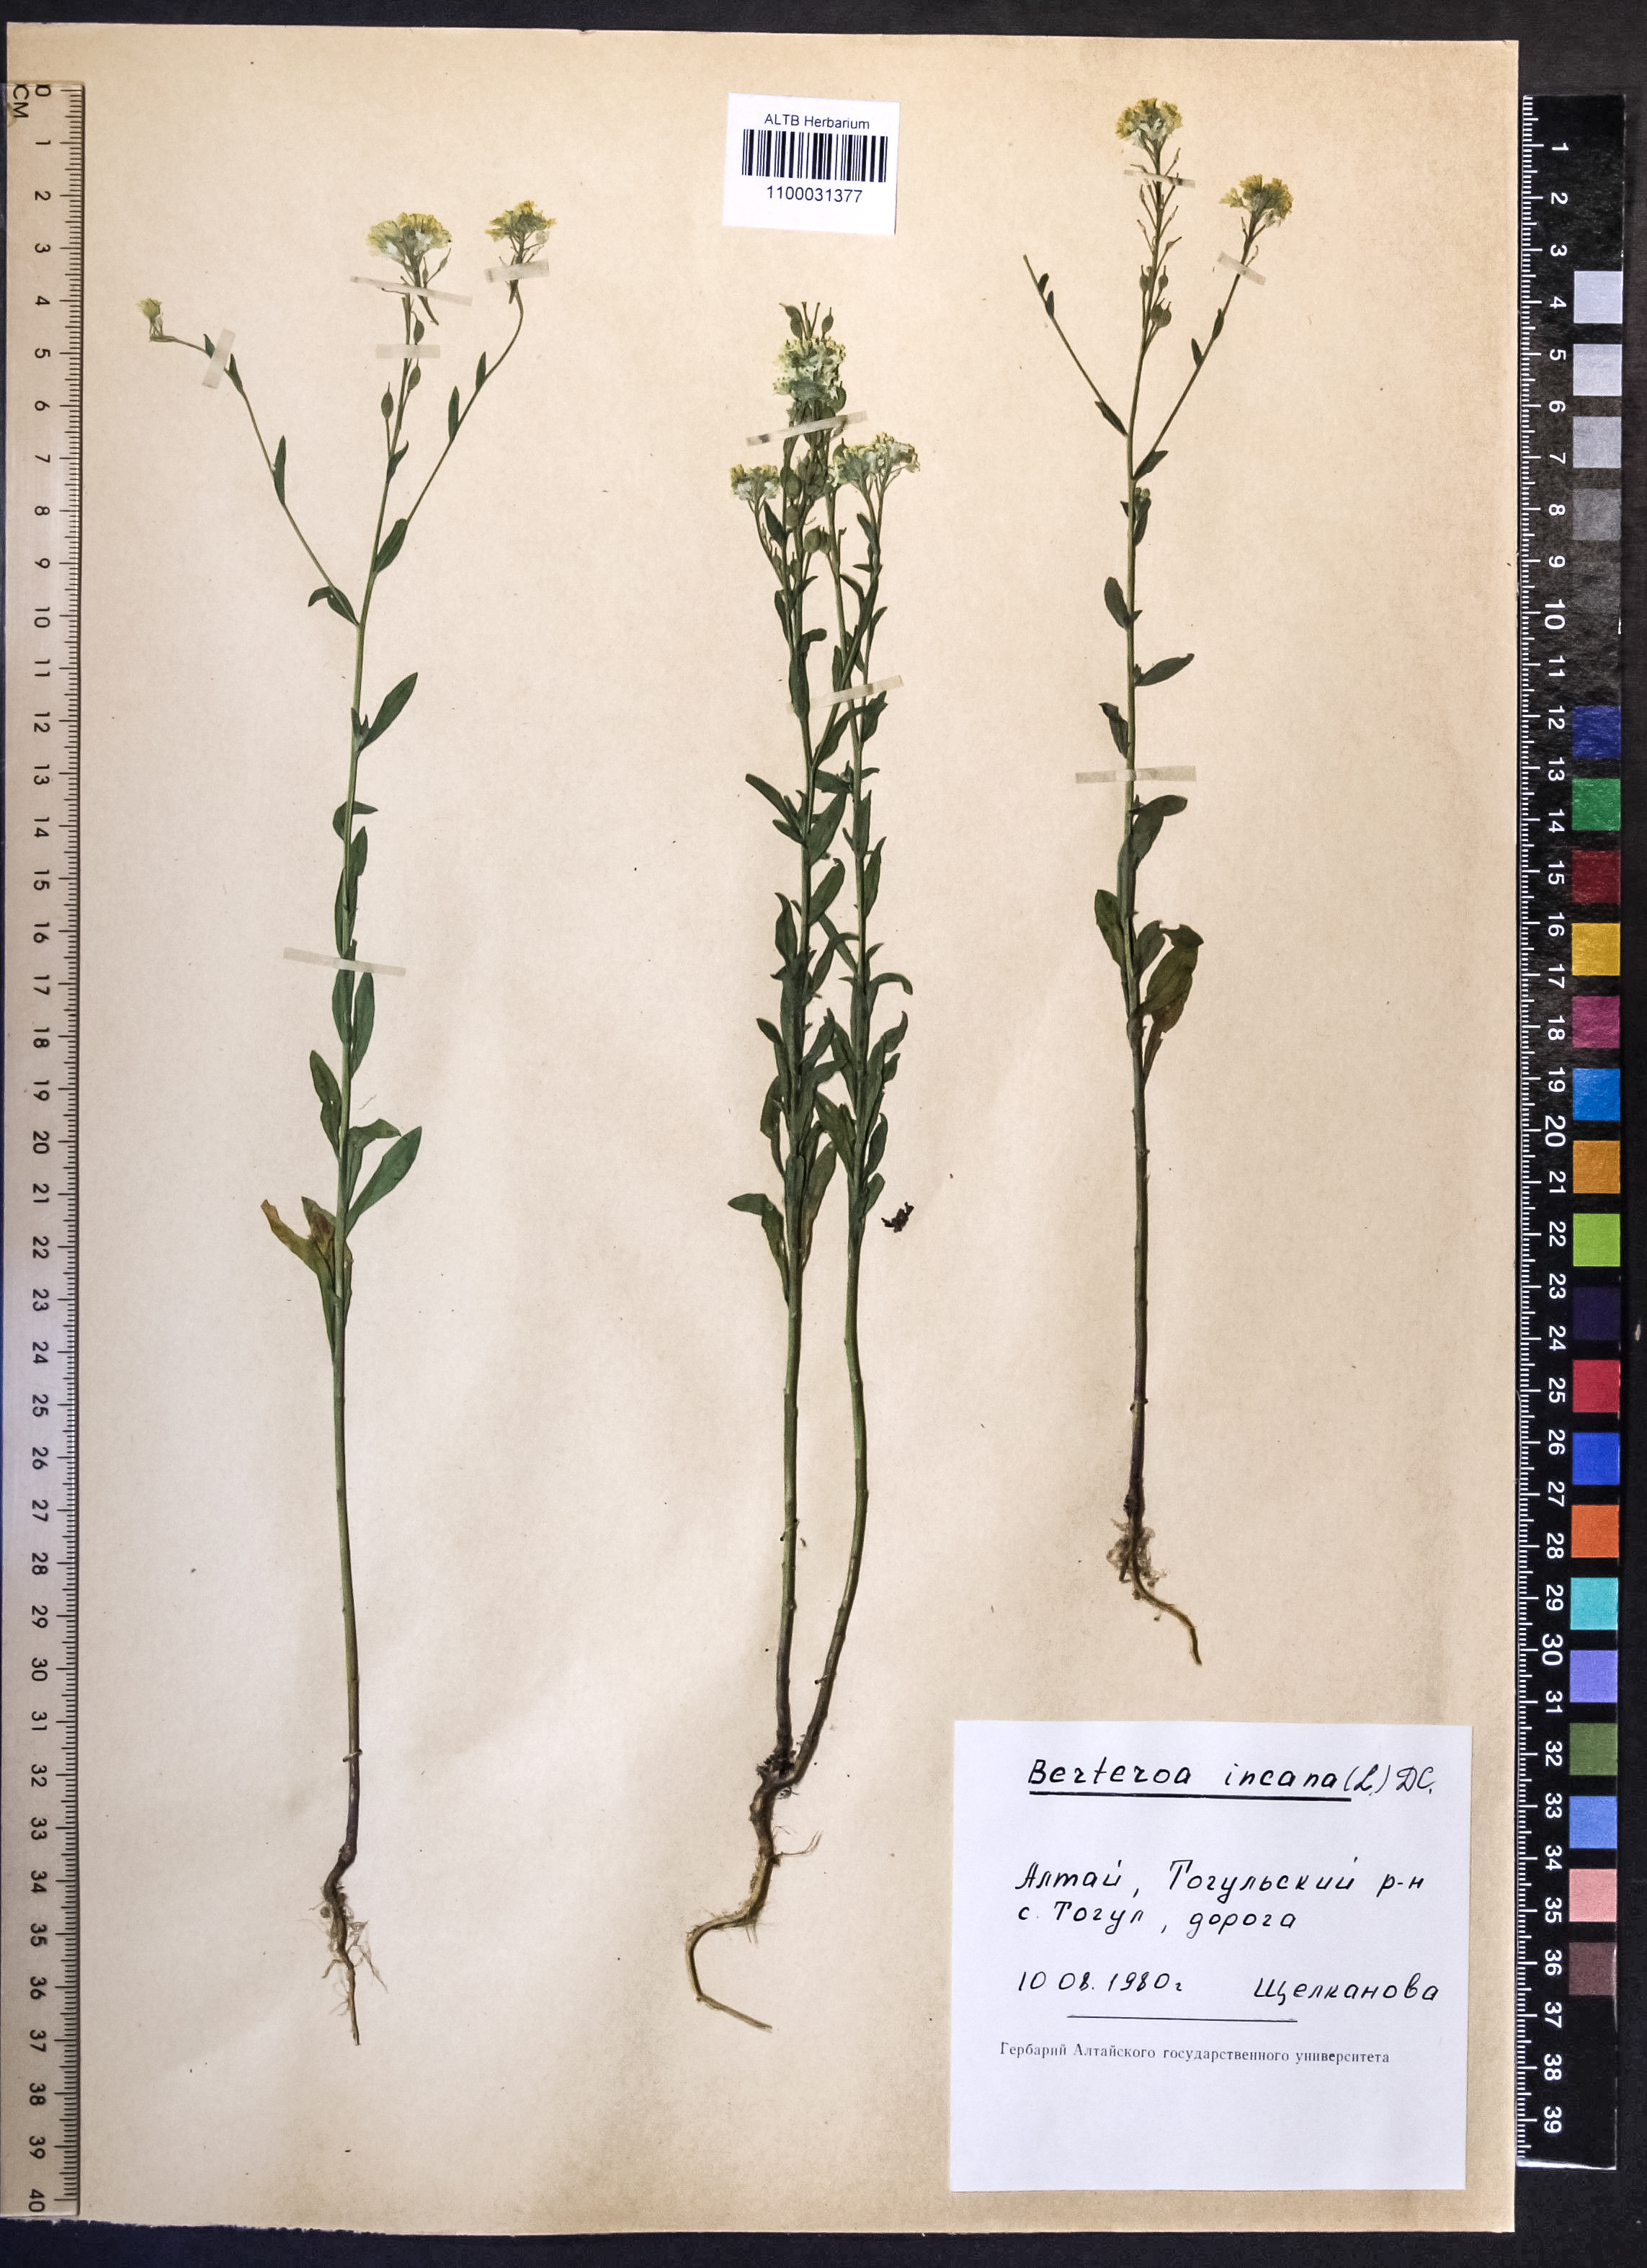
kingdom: Plantae
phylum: Tracheophyta
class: Magnoliopsida
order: Brassicales
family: Brassicaceae
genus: Berteroa
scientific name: Berteroa incana
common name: Hoary alison
